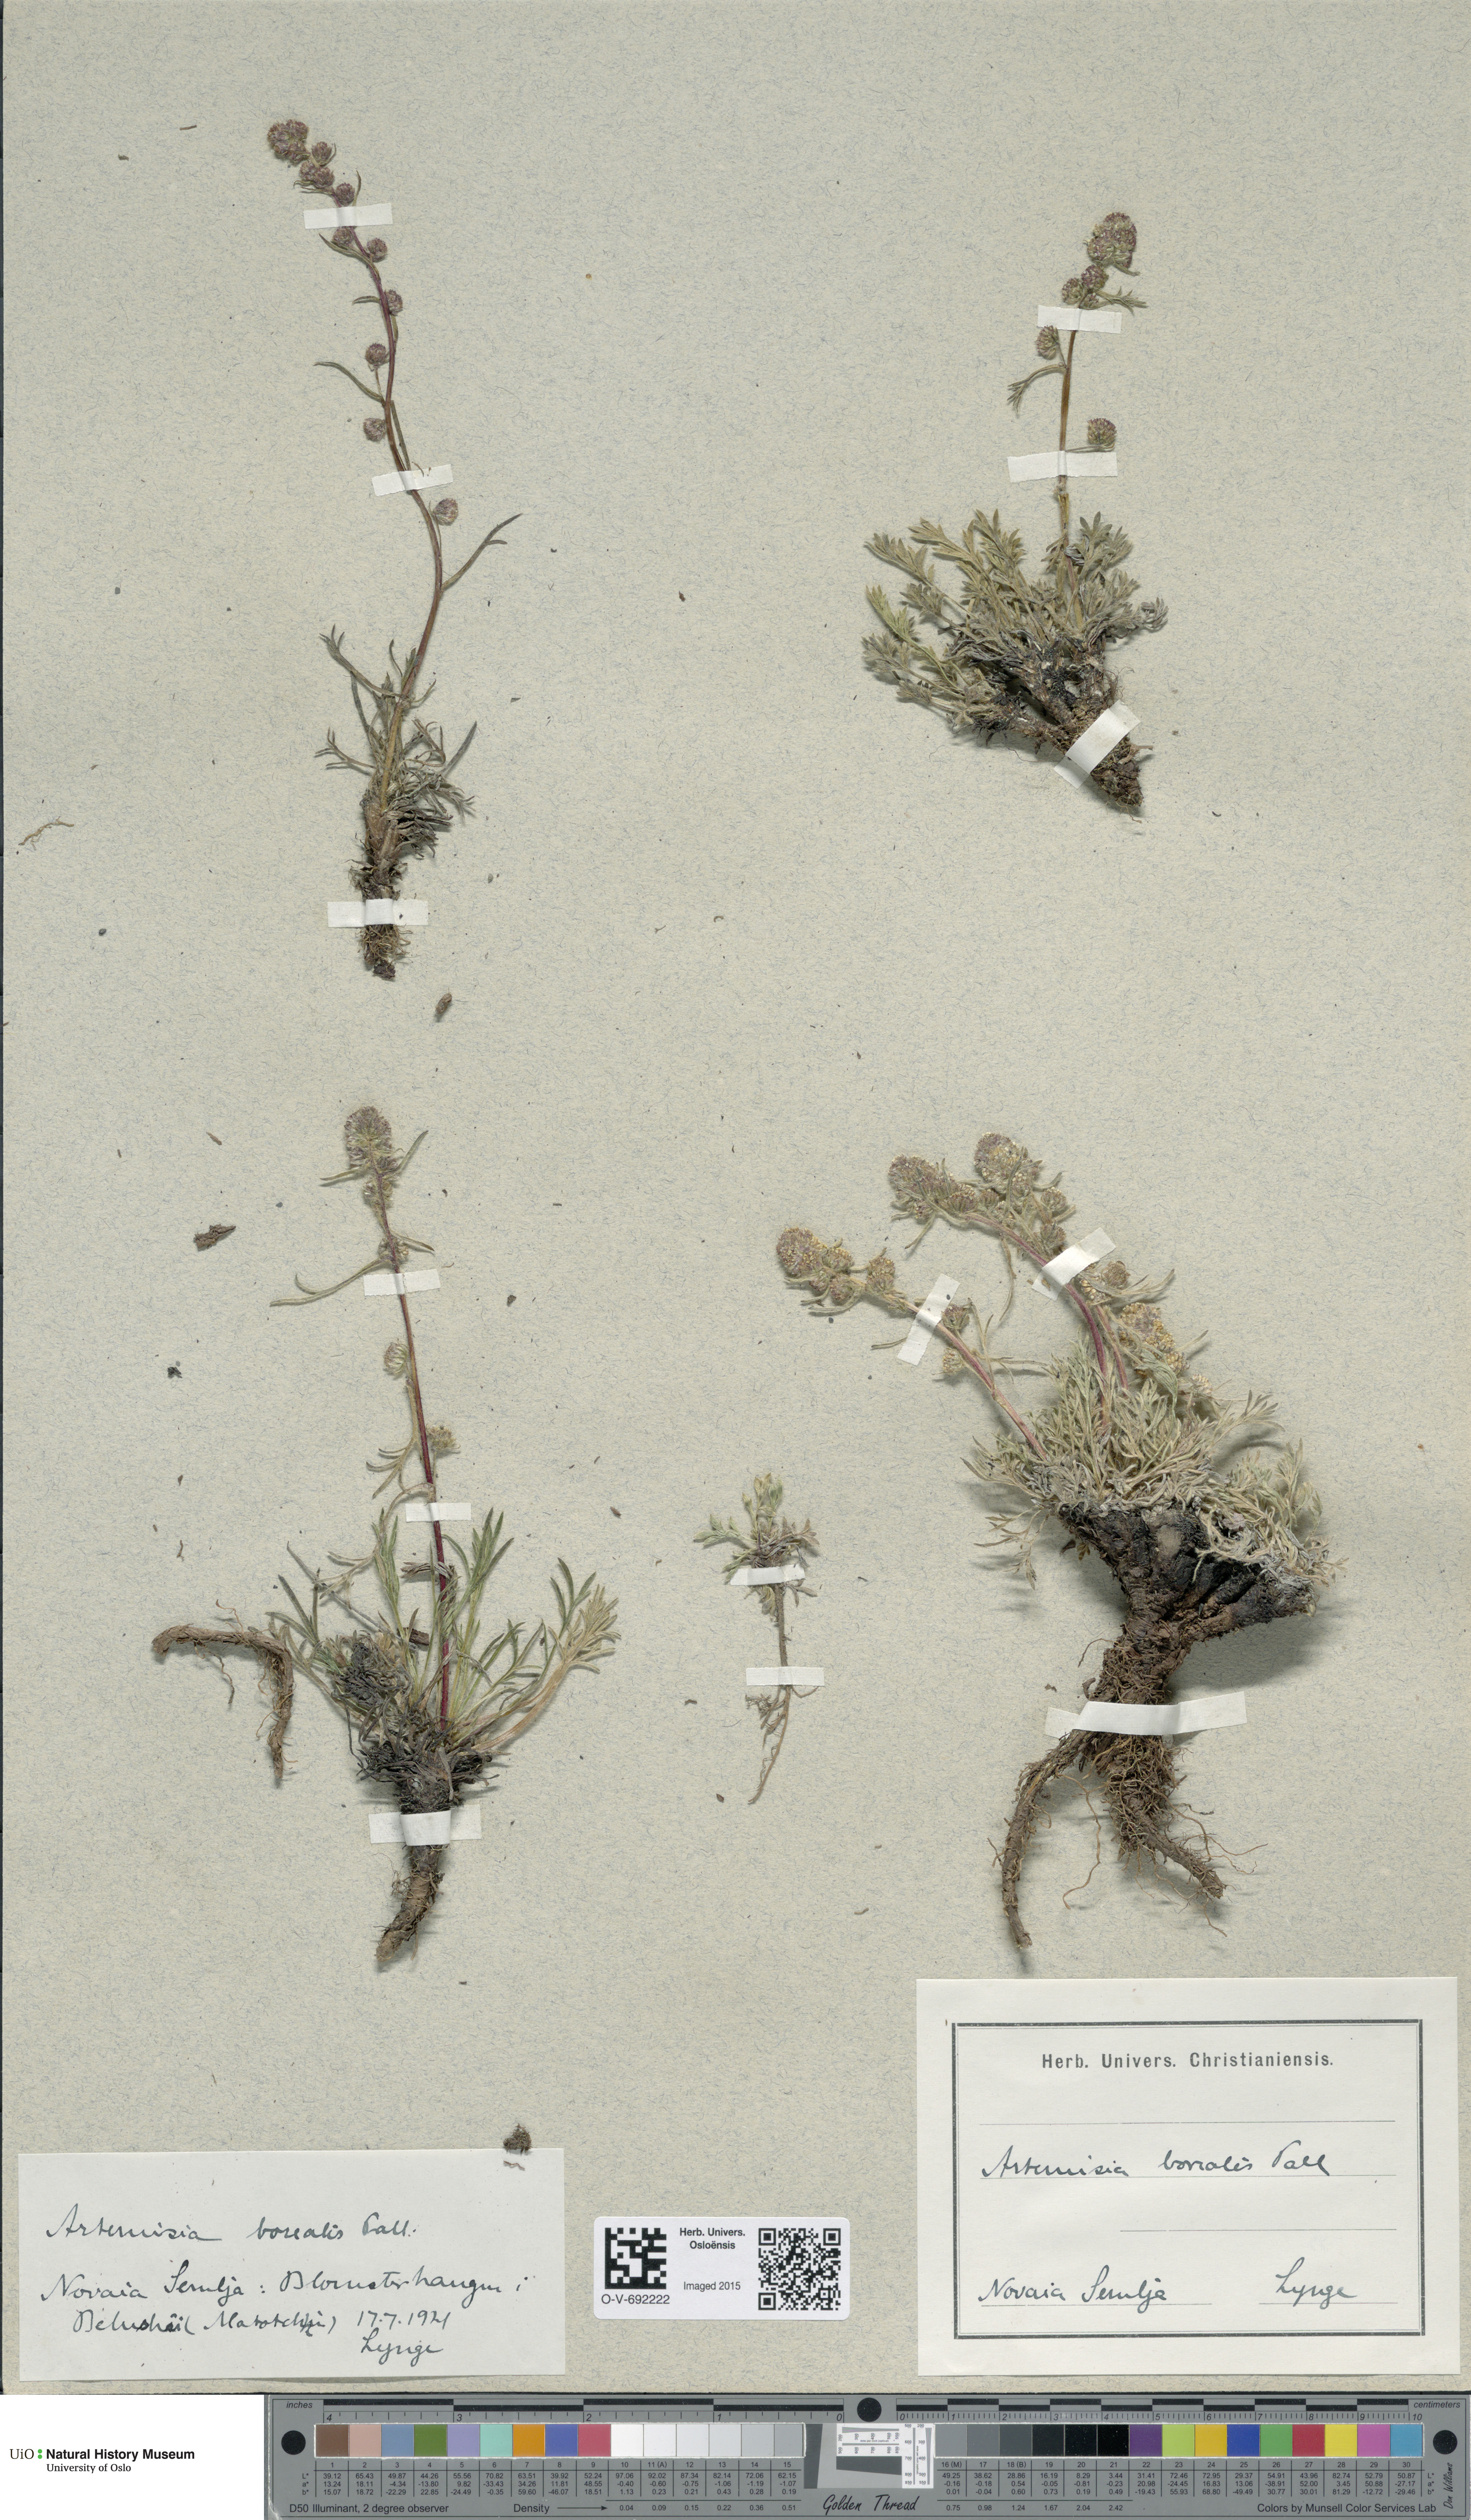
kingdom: Plantae
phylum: Tracheophyta
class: Magnoliopsida
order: Asterales
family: Asteraceae
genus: Artemisia
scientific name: Artemisia borealis
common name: Boreal sage
